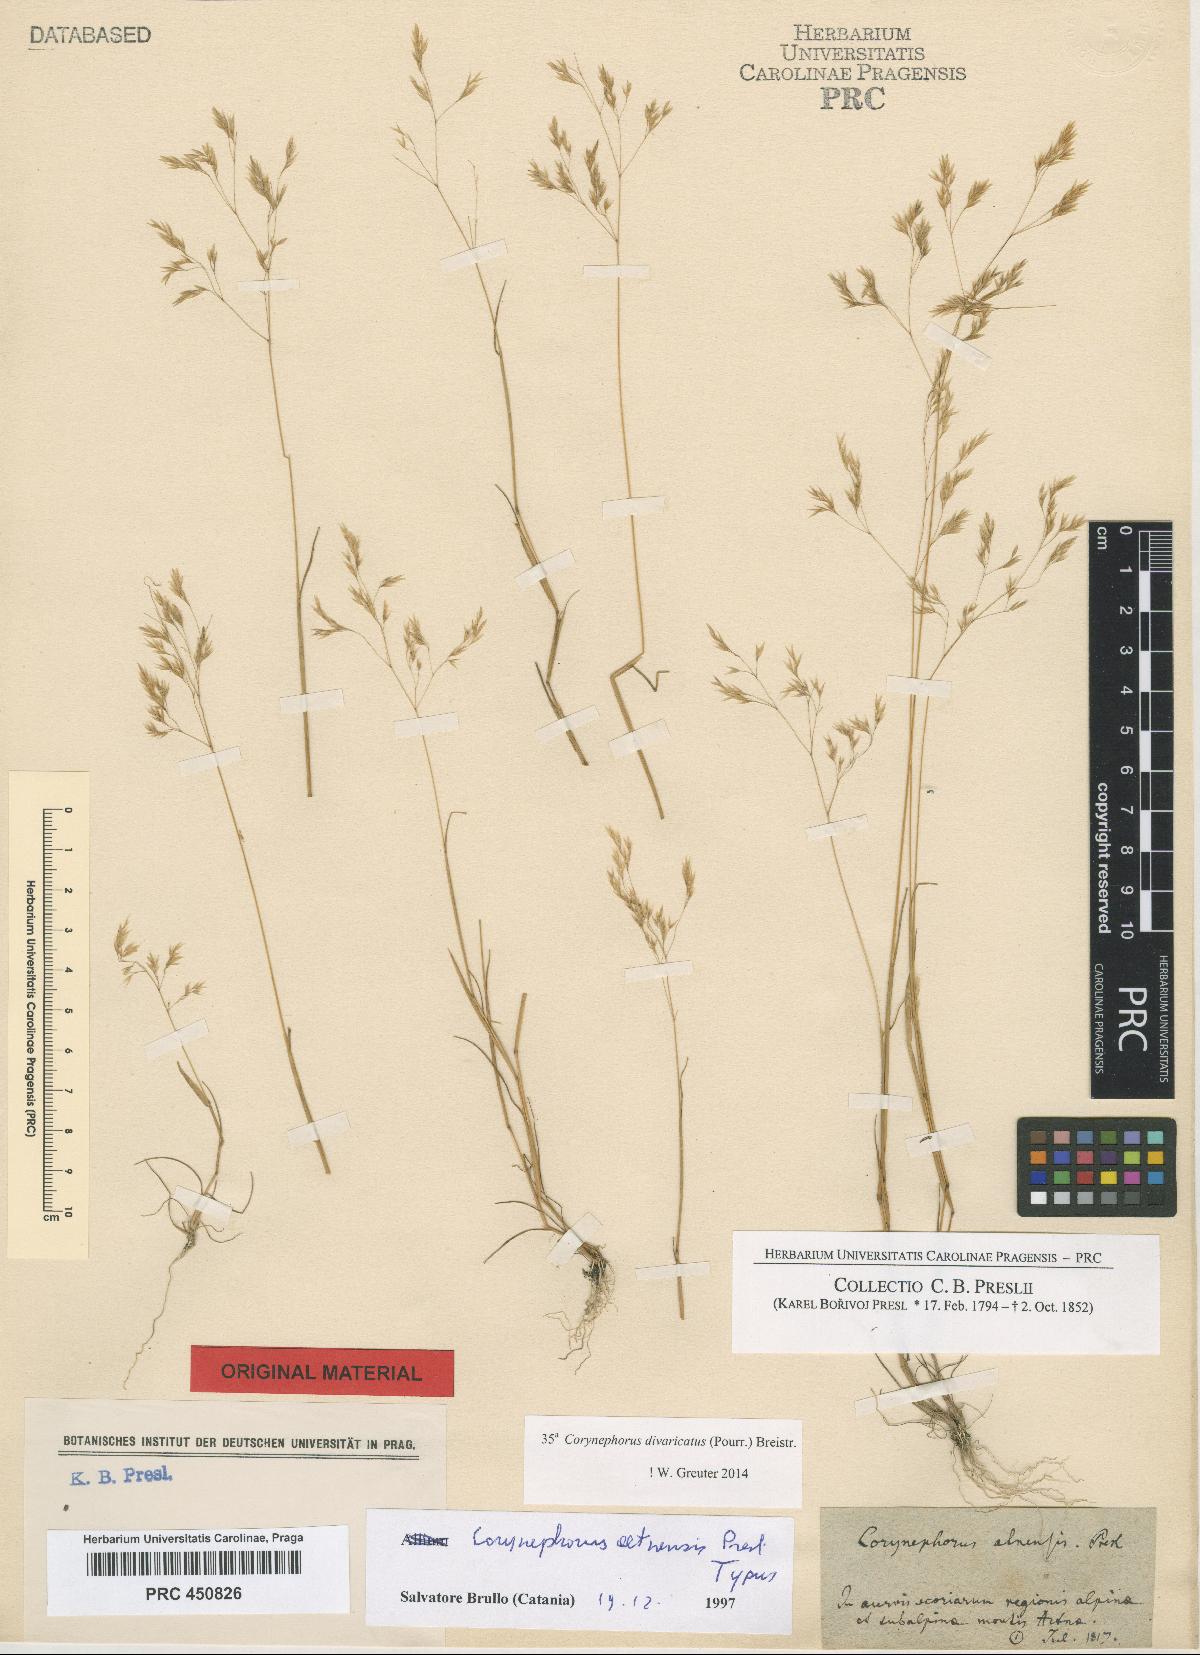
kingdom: Plantae
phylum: Tracheophyta
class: Liliopsida
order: Poales
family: Poaceae
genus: Corynephorus
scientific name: Corynephorus articulatus
